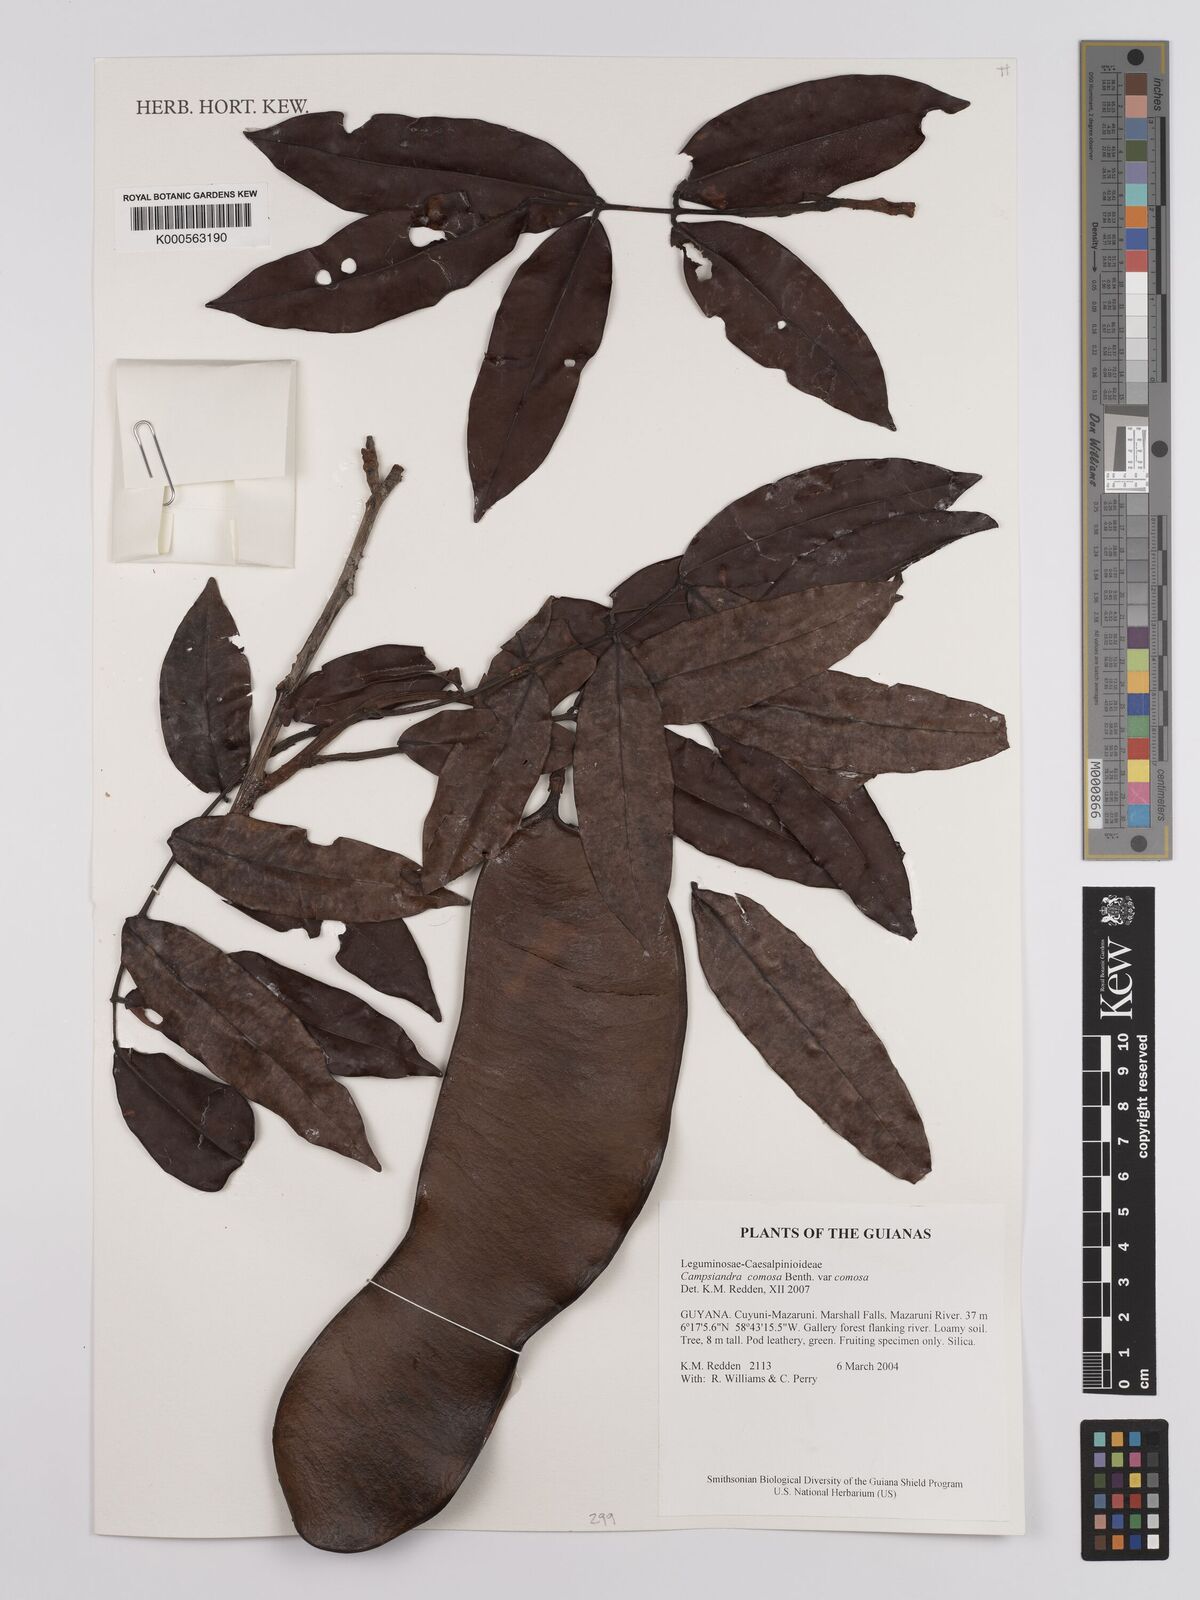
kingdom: Plantae
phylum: Tracheophyta
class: Magnoliopsida
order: Fabales
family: Fabaceae
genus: Campsiandra
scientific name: Campsiandra comosa
